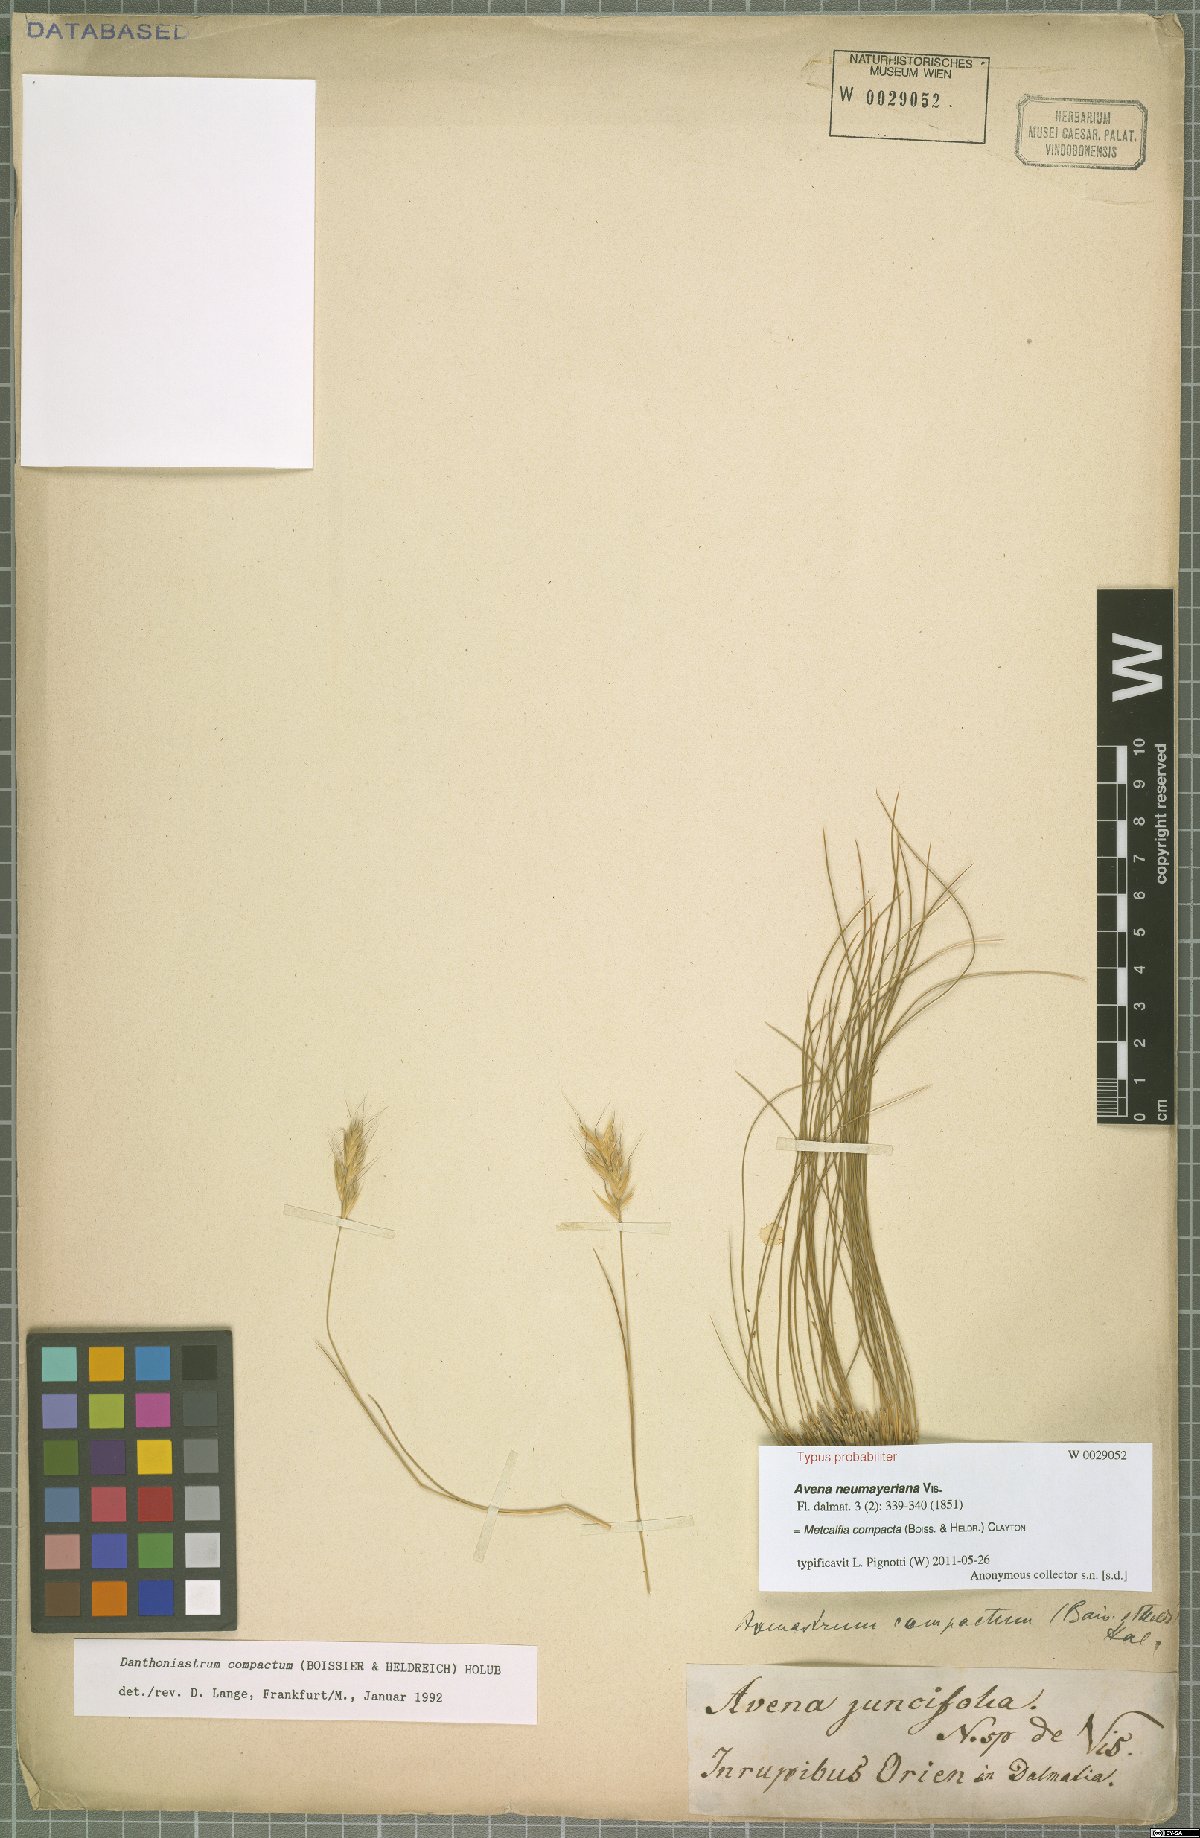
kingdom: Plantae
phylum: Tracheophyta
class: Liliopsida
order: Poales
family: Poaceae
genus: Danthoniastrum
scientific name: Danthoniastrum compactum
